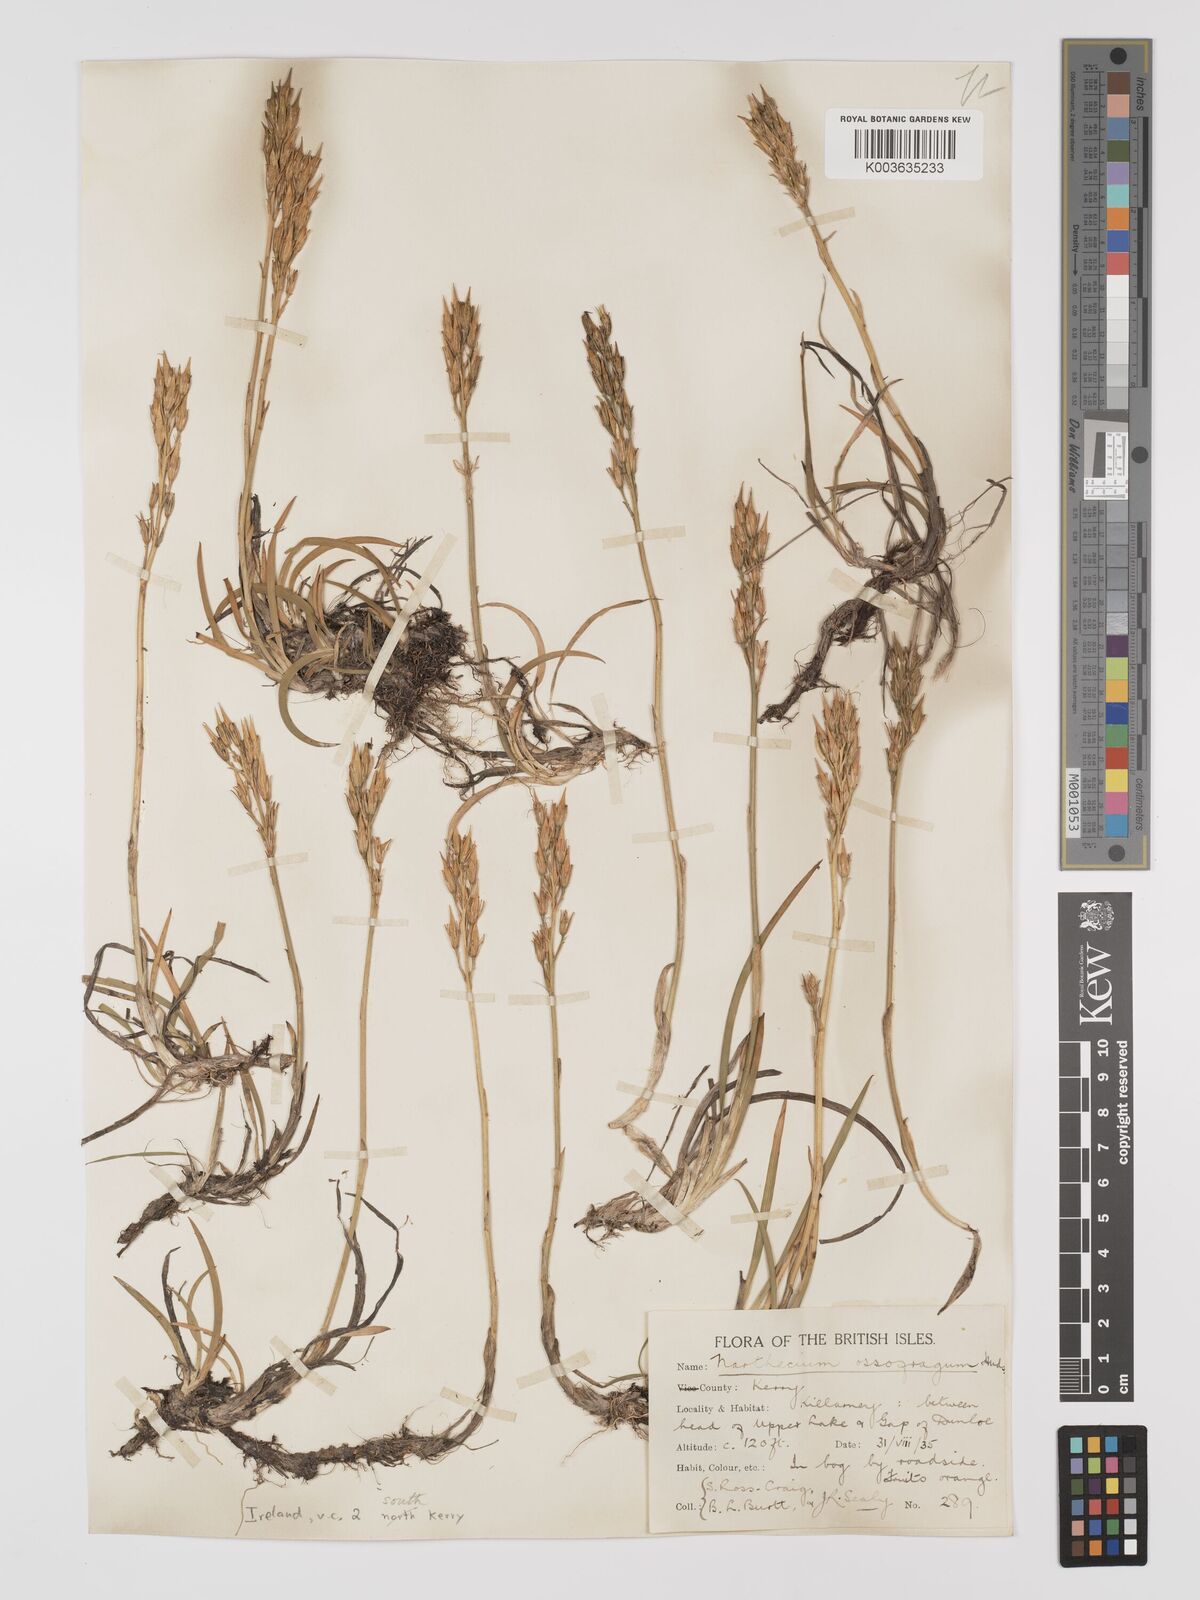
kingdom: Plantae
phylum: Tracheophyta
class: Liliopsida
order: Dioscoreales
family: Nartheciaceae
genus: Narthecium
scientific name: Narthecium ossifragum
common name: Bog asphodel
